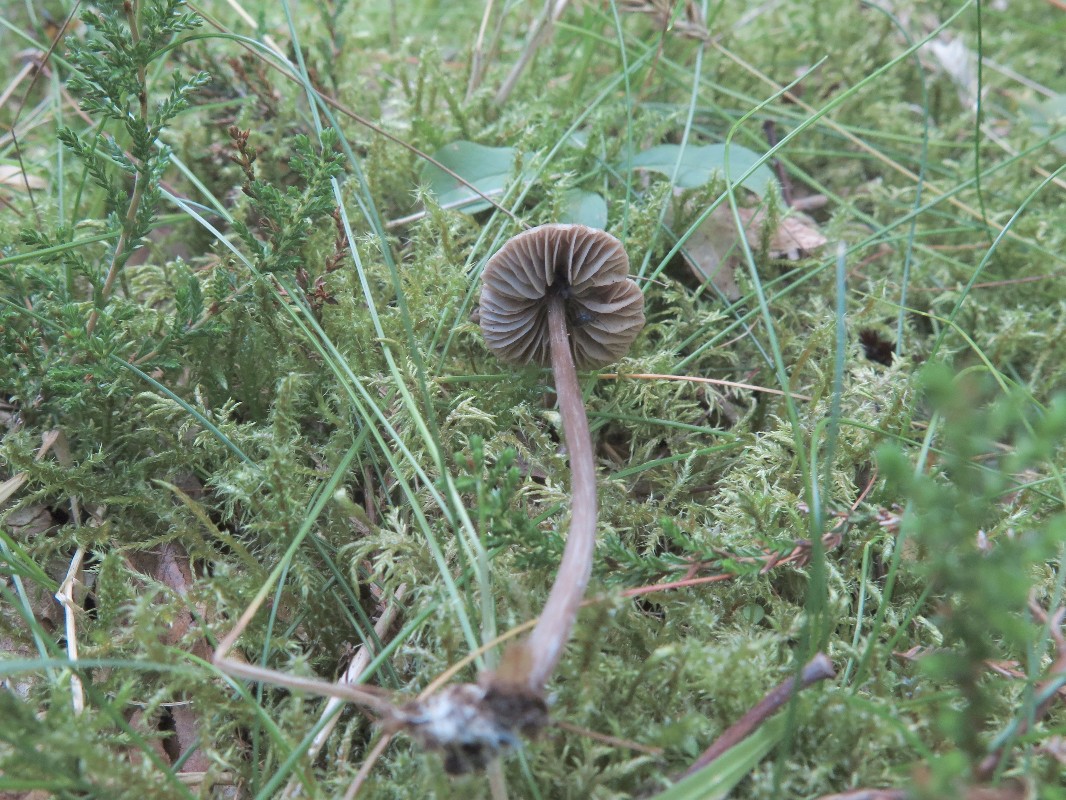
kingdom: Fungi
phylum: Basidiomycota
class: Agaricomycetes
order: Agaricales
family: Entolomataceae
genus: Entoloma
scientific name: Entoloma
